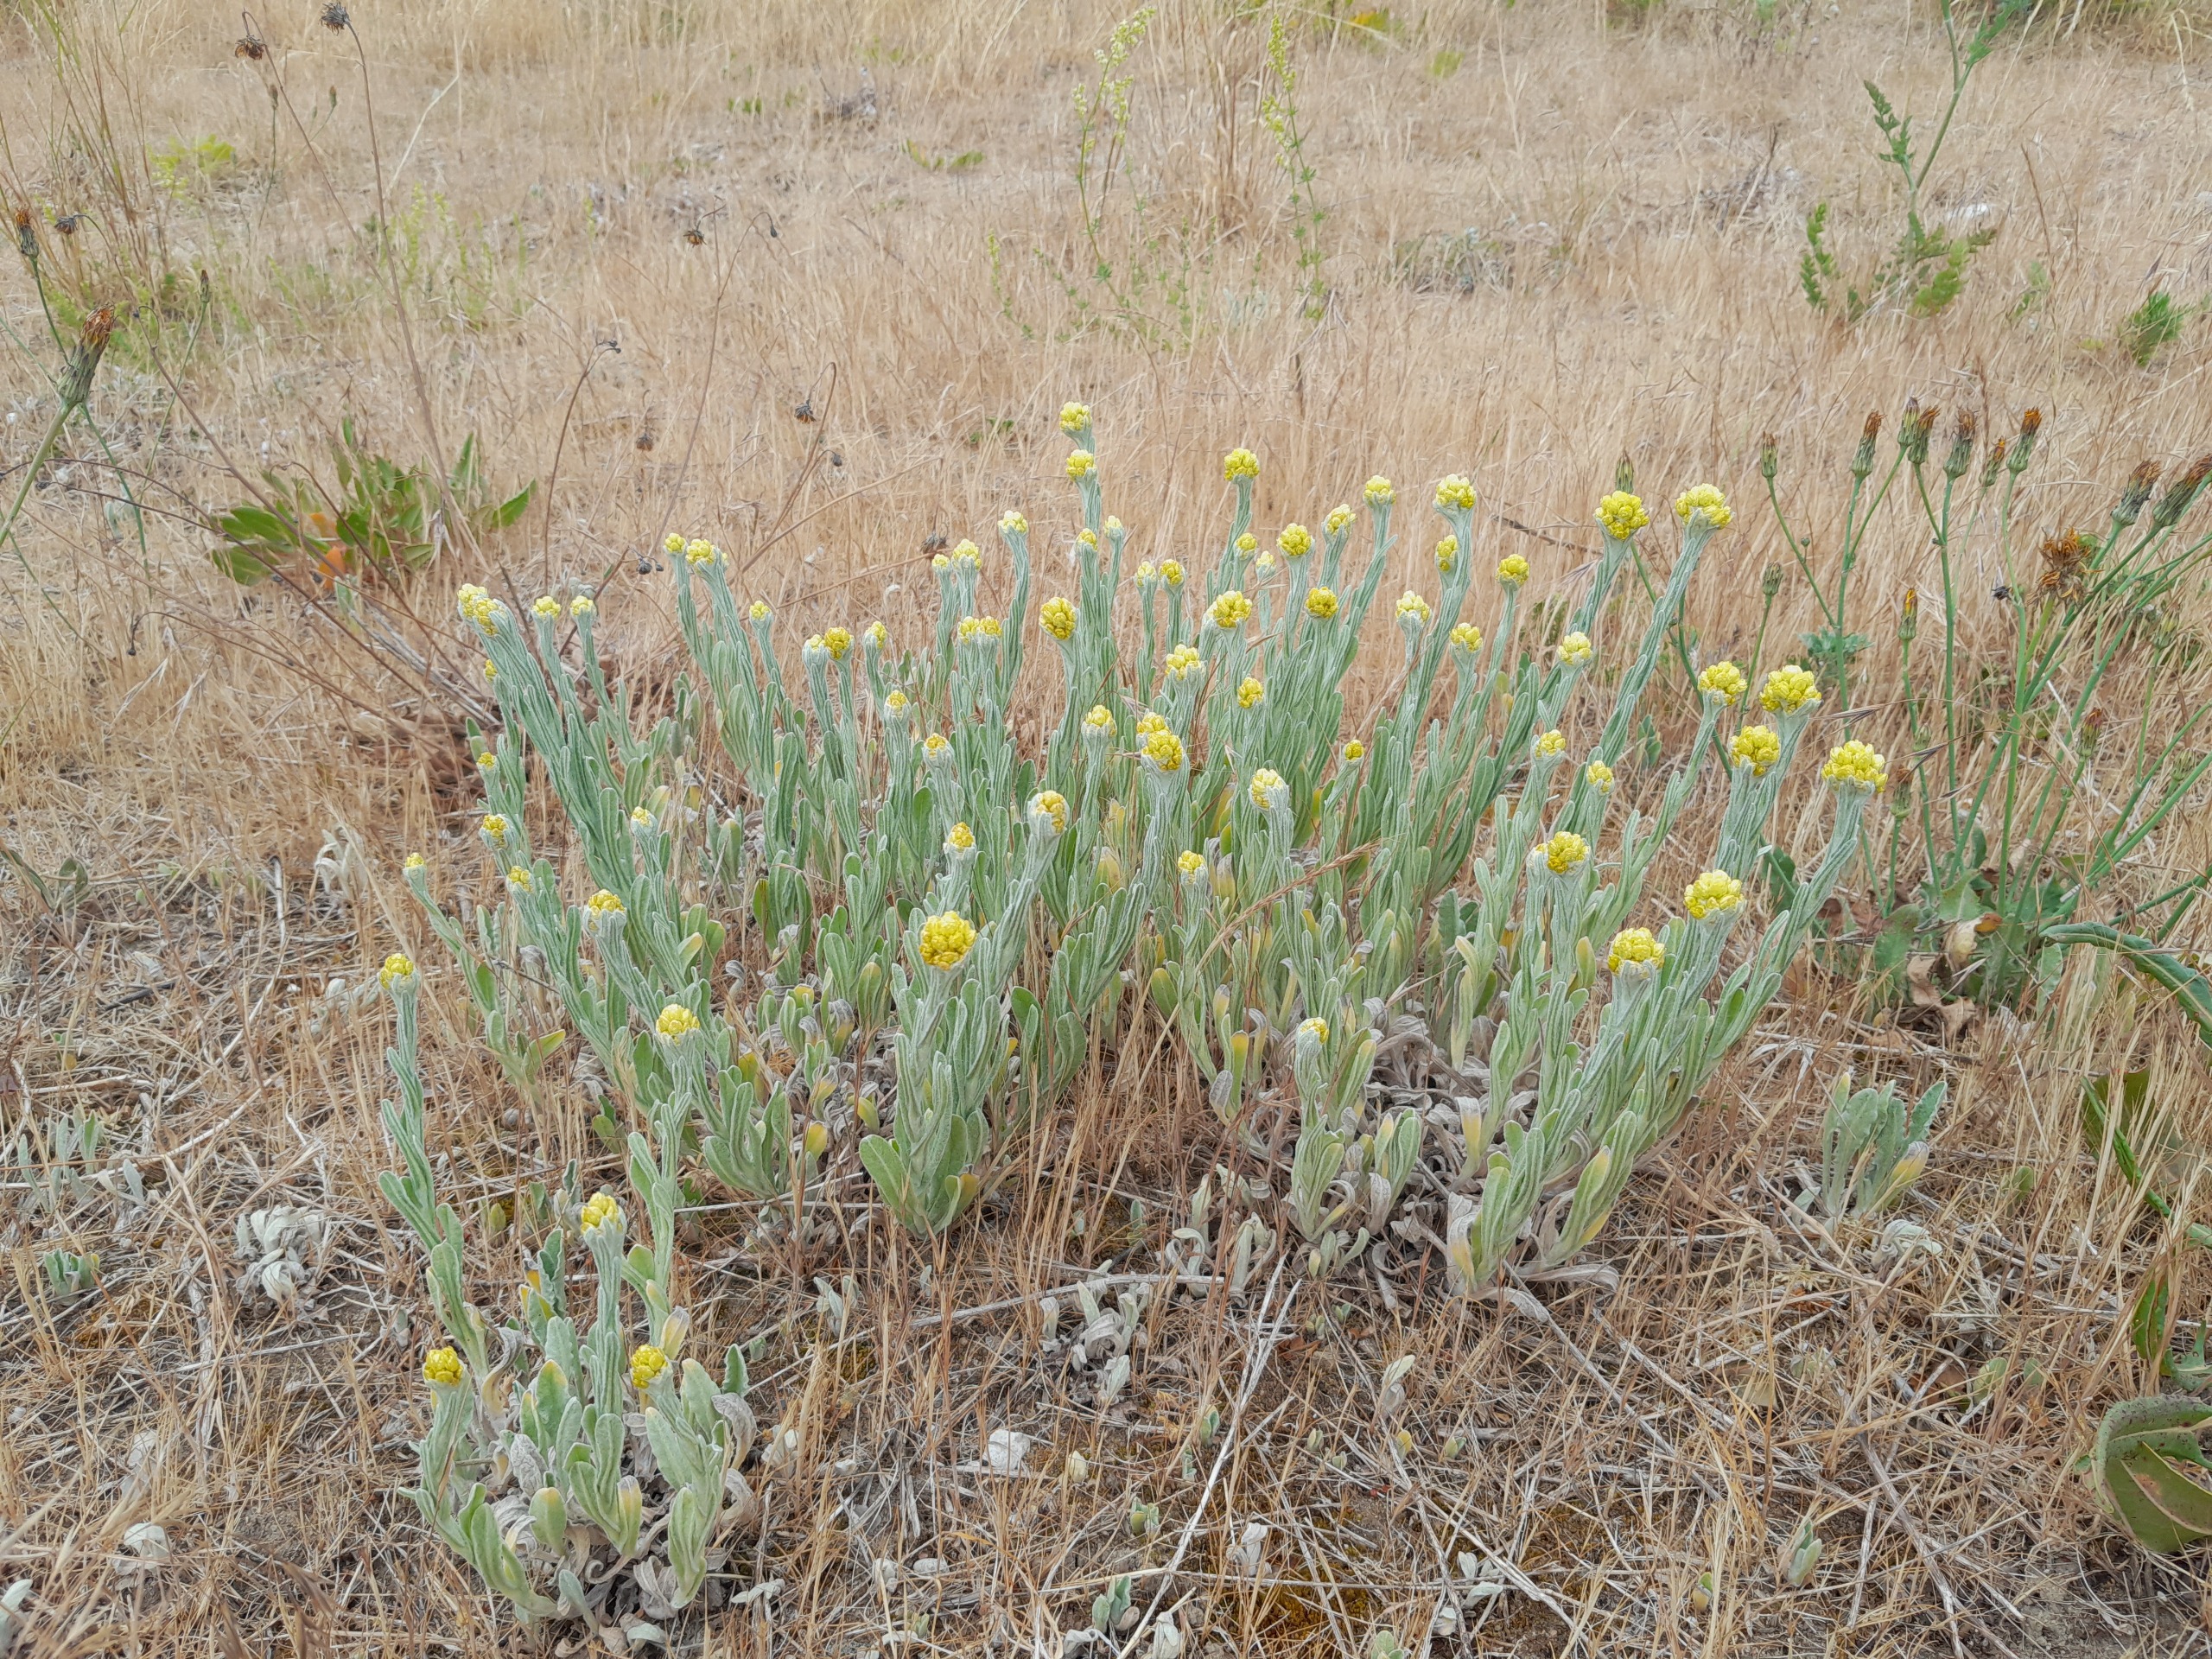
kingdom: Plantae
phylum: Tracheophyta
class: Magnoliopsida
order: Asterales
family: Asteraceae
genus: Helichrysum
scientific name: Helichrysum arenarium
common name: Gul evighedsblomst
